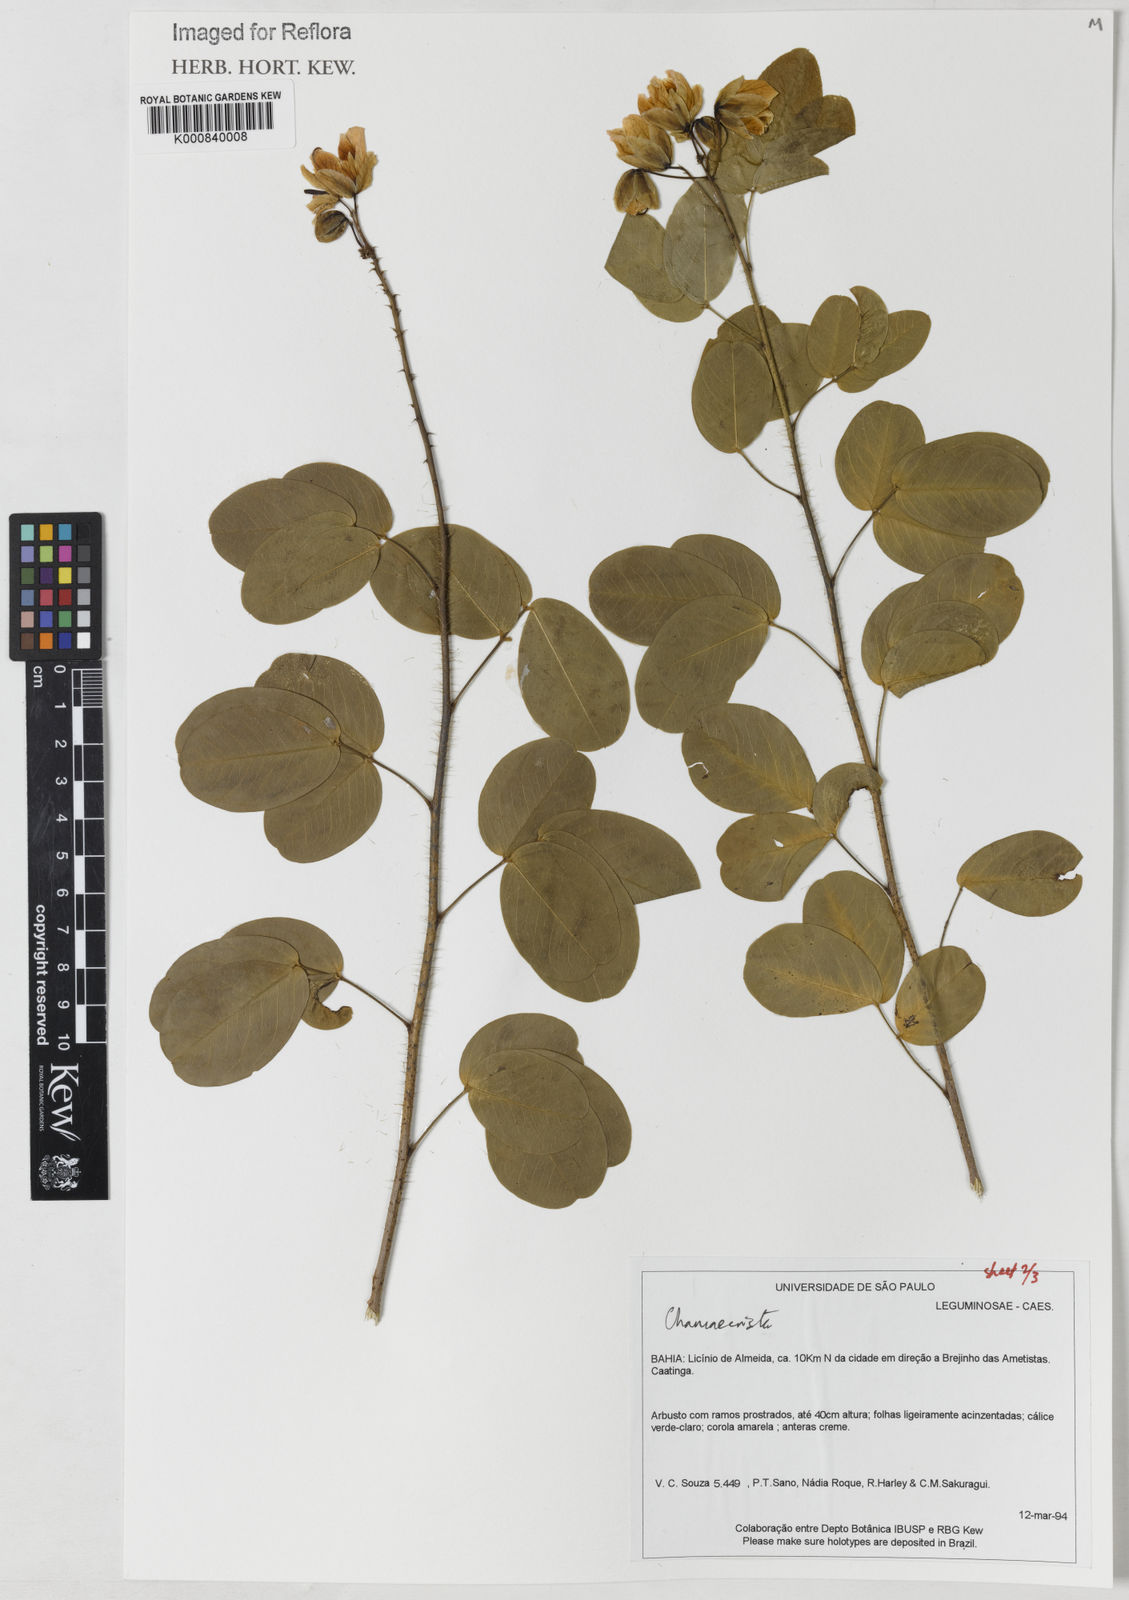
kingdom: Plantae
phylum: Tracheophyta
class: Magnoliopsida
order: Fabales
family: Fabaceae
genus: Chamaecrista
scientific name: Chamaecrista
